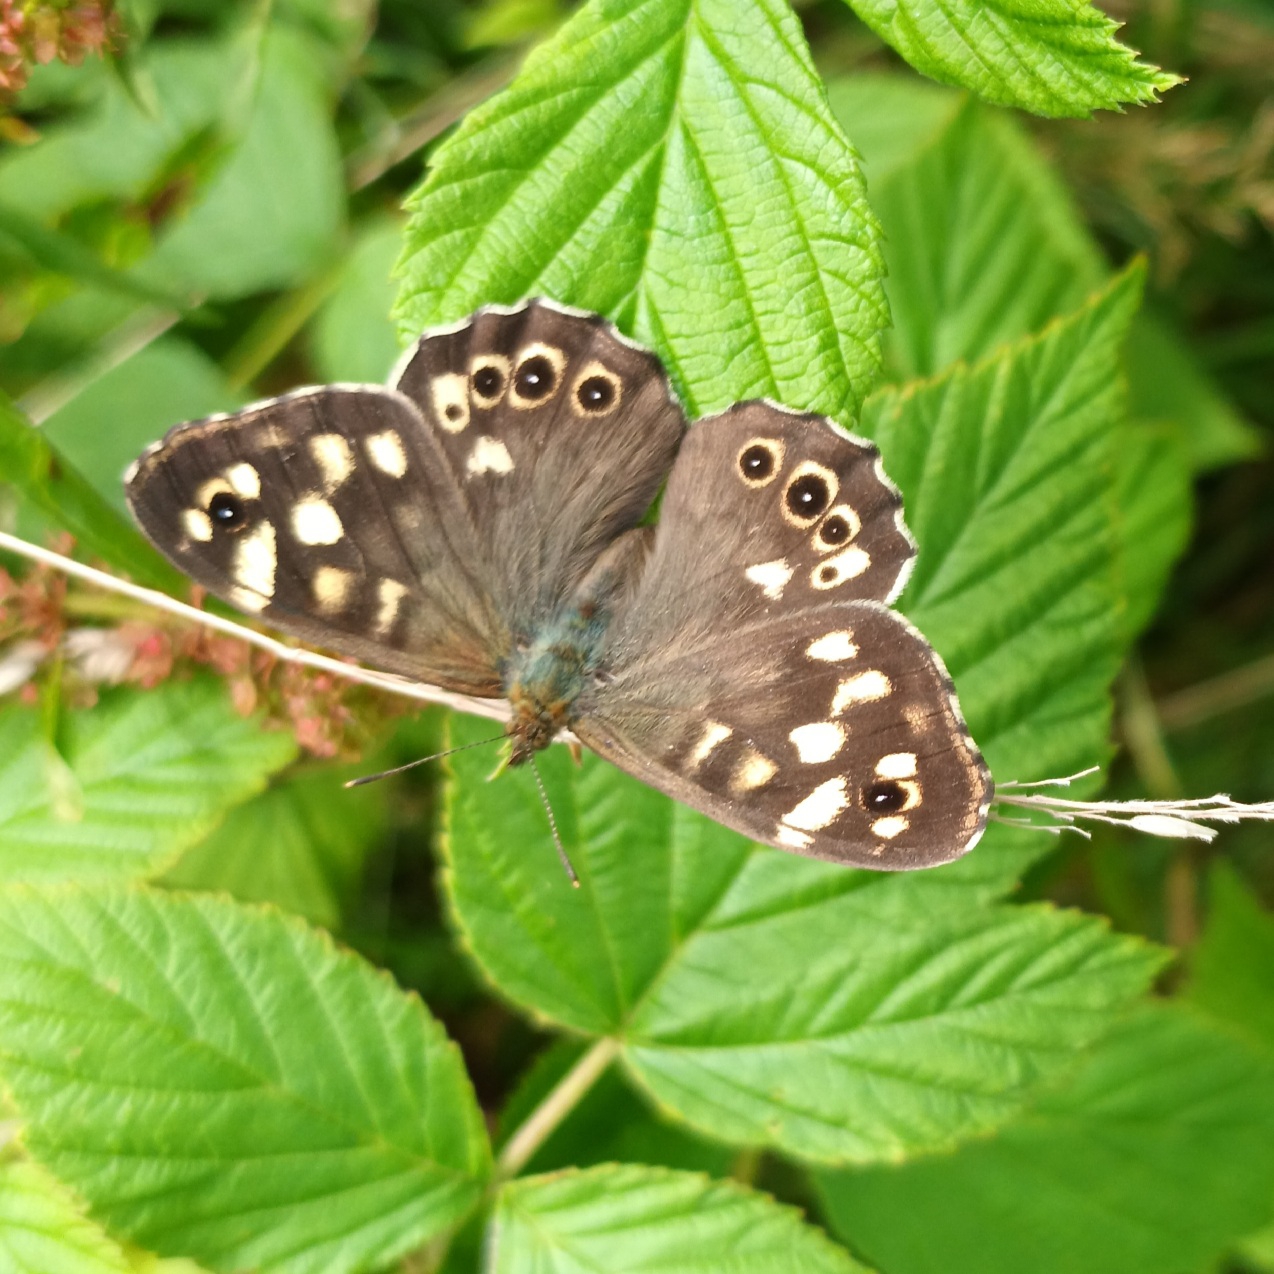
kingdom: Animalia
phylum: Arthropoda
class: Insecta
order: Lepidoptera
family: Nymphalidae
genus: Pararge
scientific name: Pararge aegeria
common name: Skovrandøje
